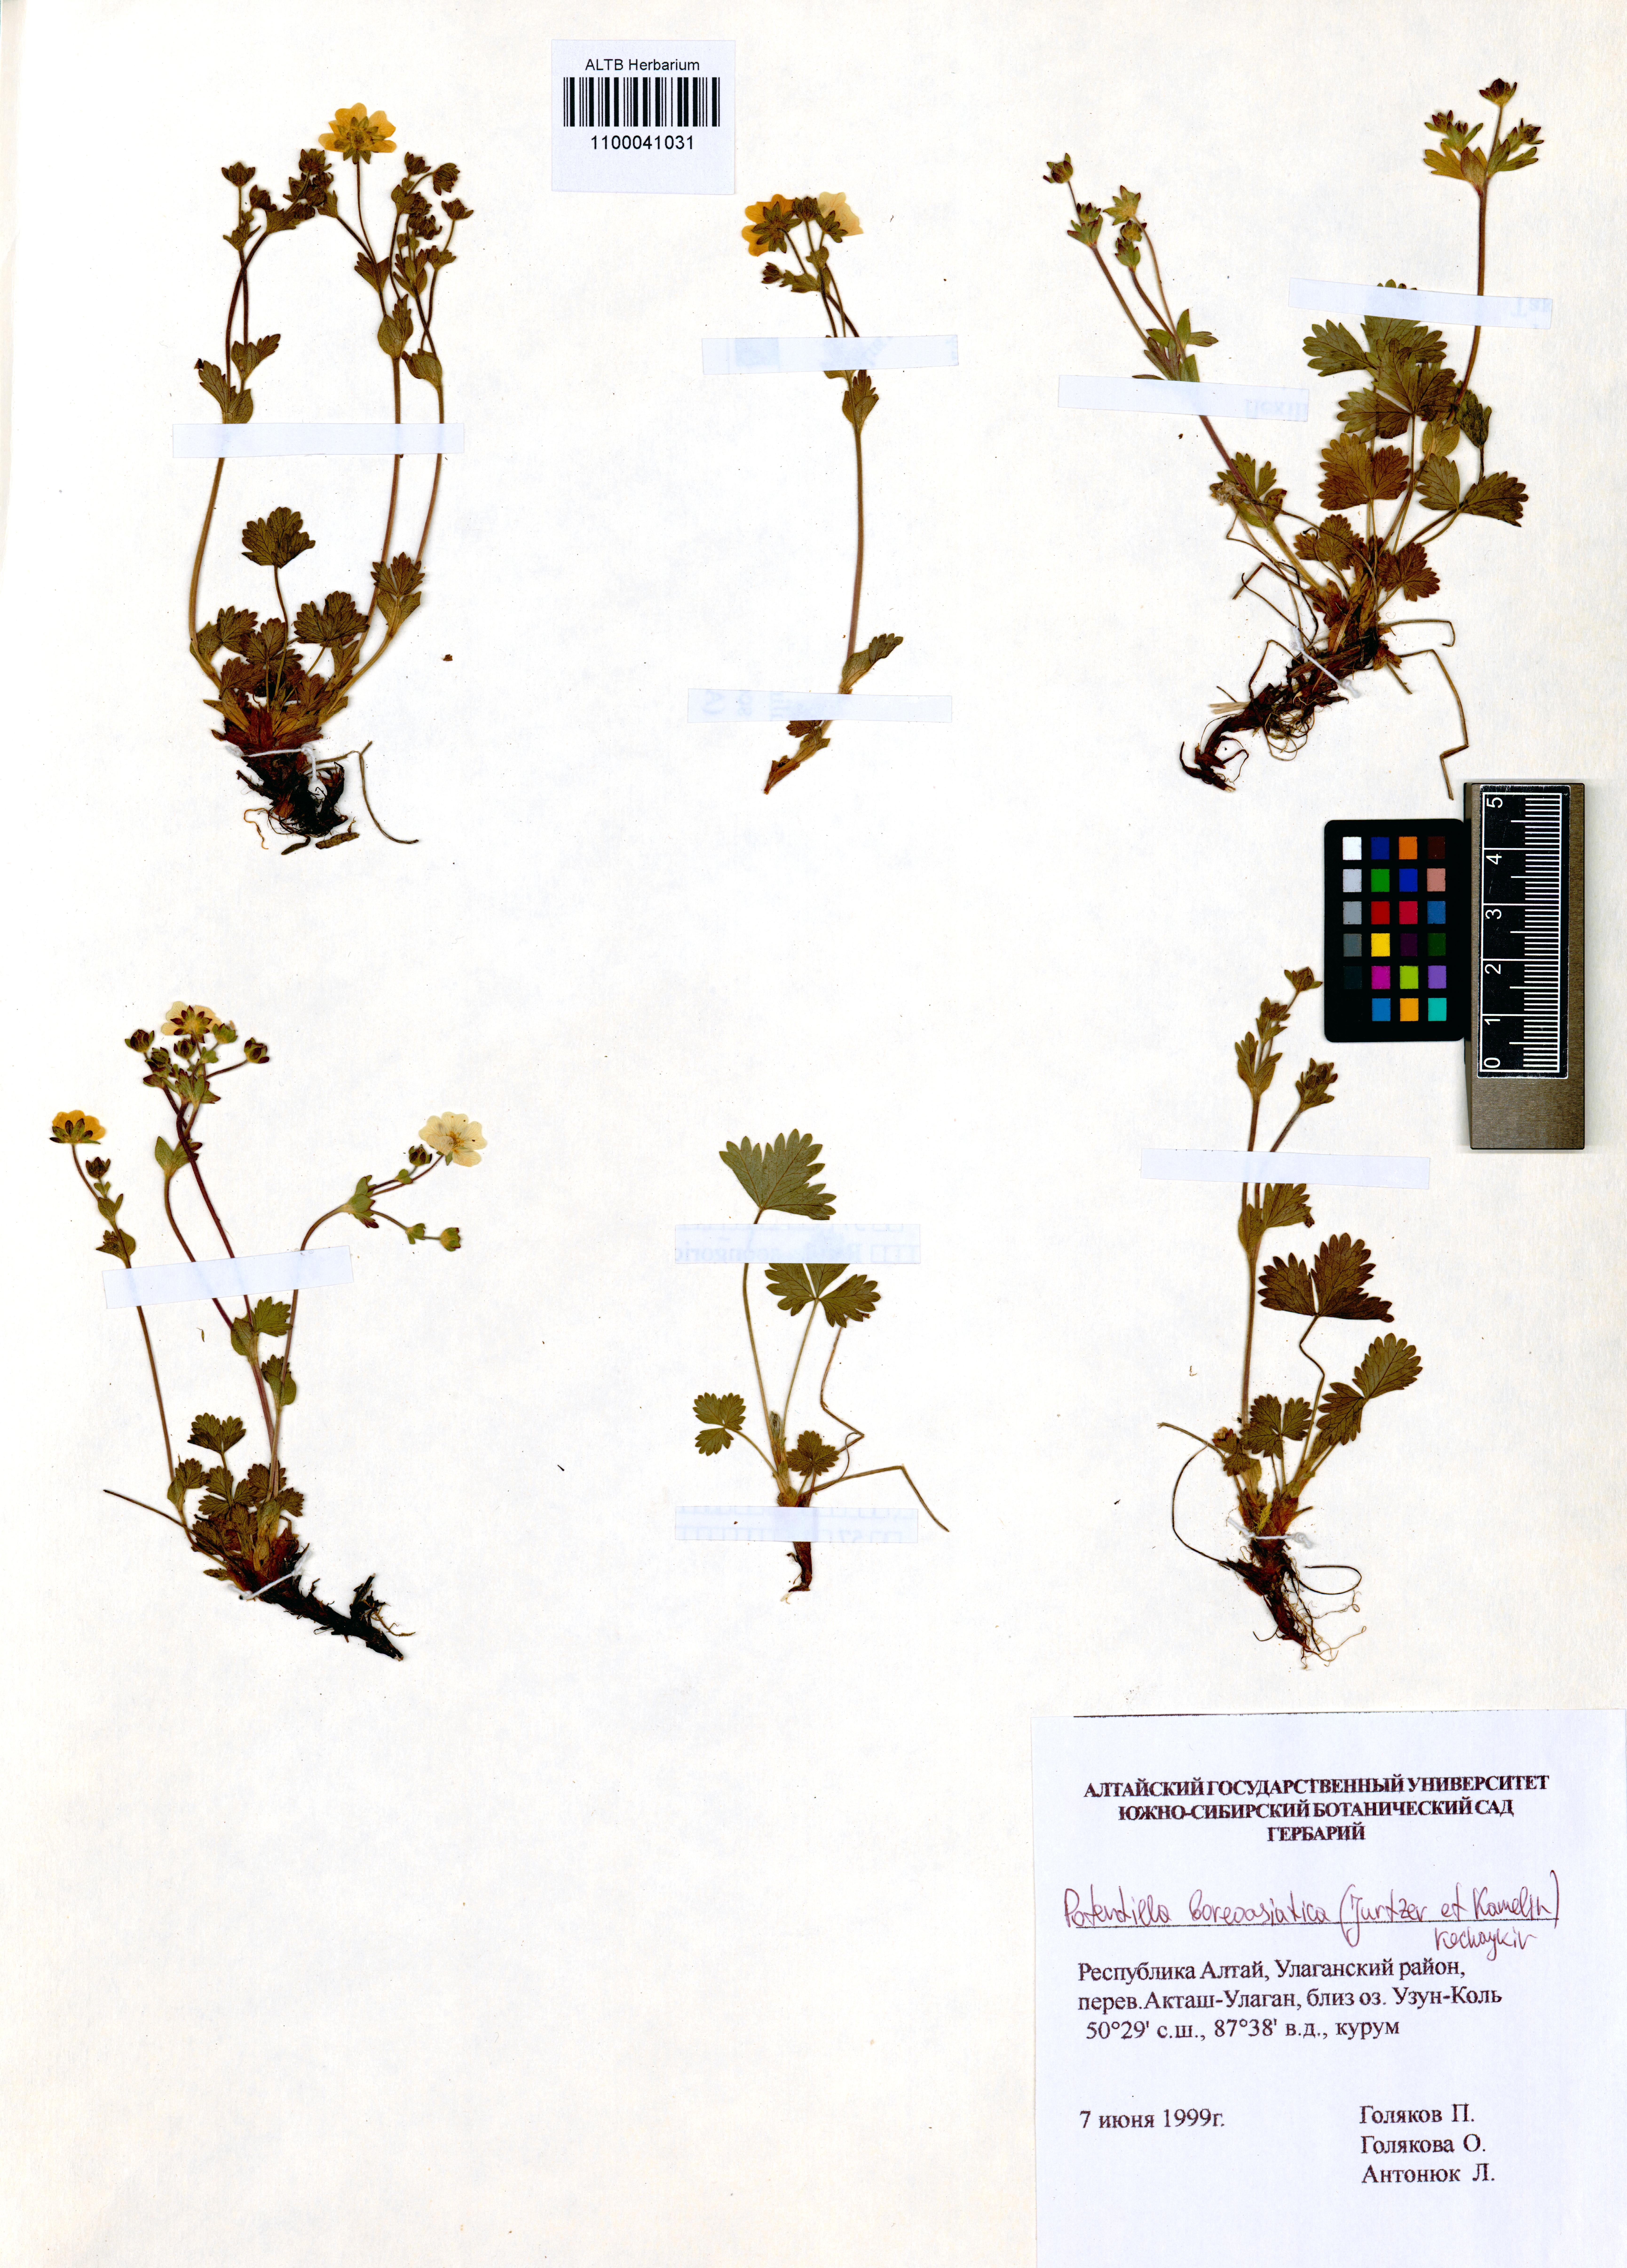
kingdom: Plantae
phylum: Tracheophyta
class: Magnoliopsida
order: Rosales
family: Rosaceae
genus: Potentilla
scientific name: Potentilla
